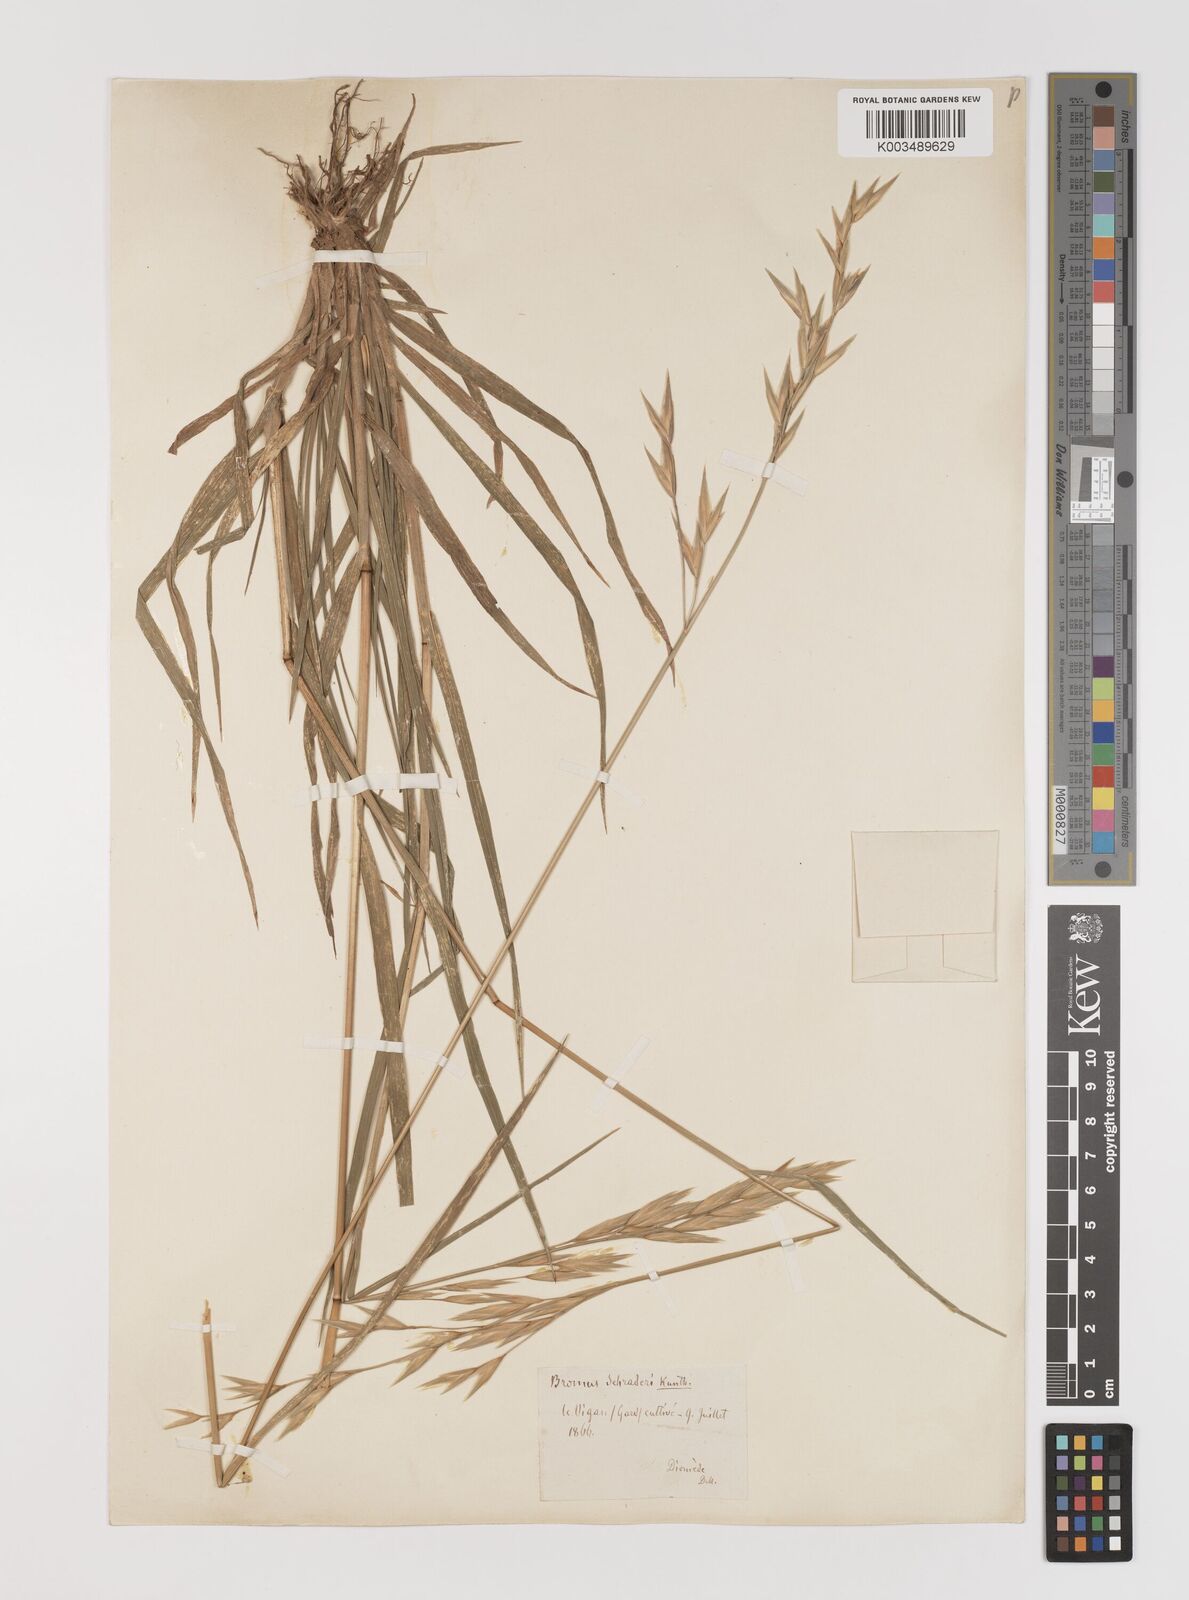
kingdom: Plantae
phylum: Tracheophyta
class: Liliopsida
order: Poales
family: Poaceae
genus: Bromus
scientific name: Bromus catharticus
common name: Rescuegrass
